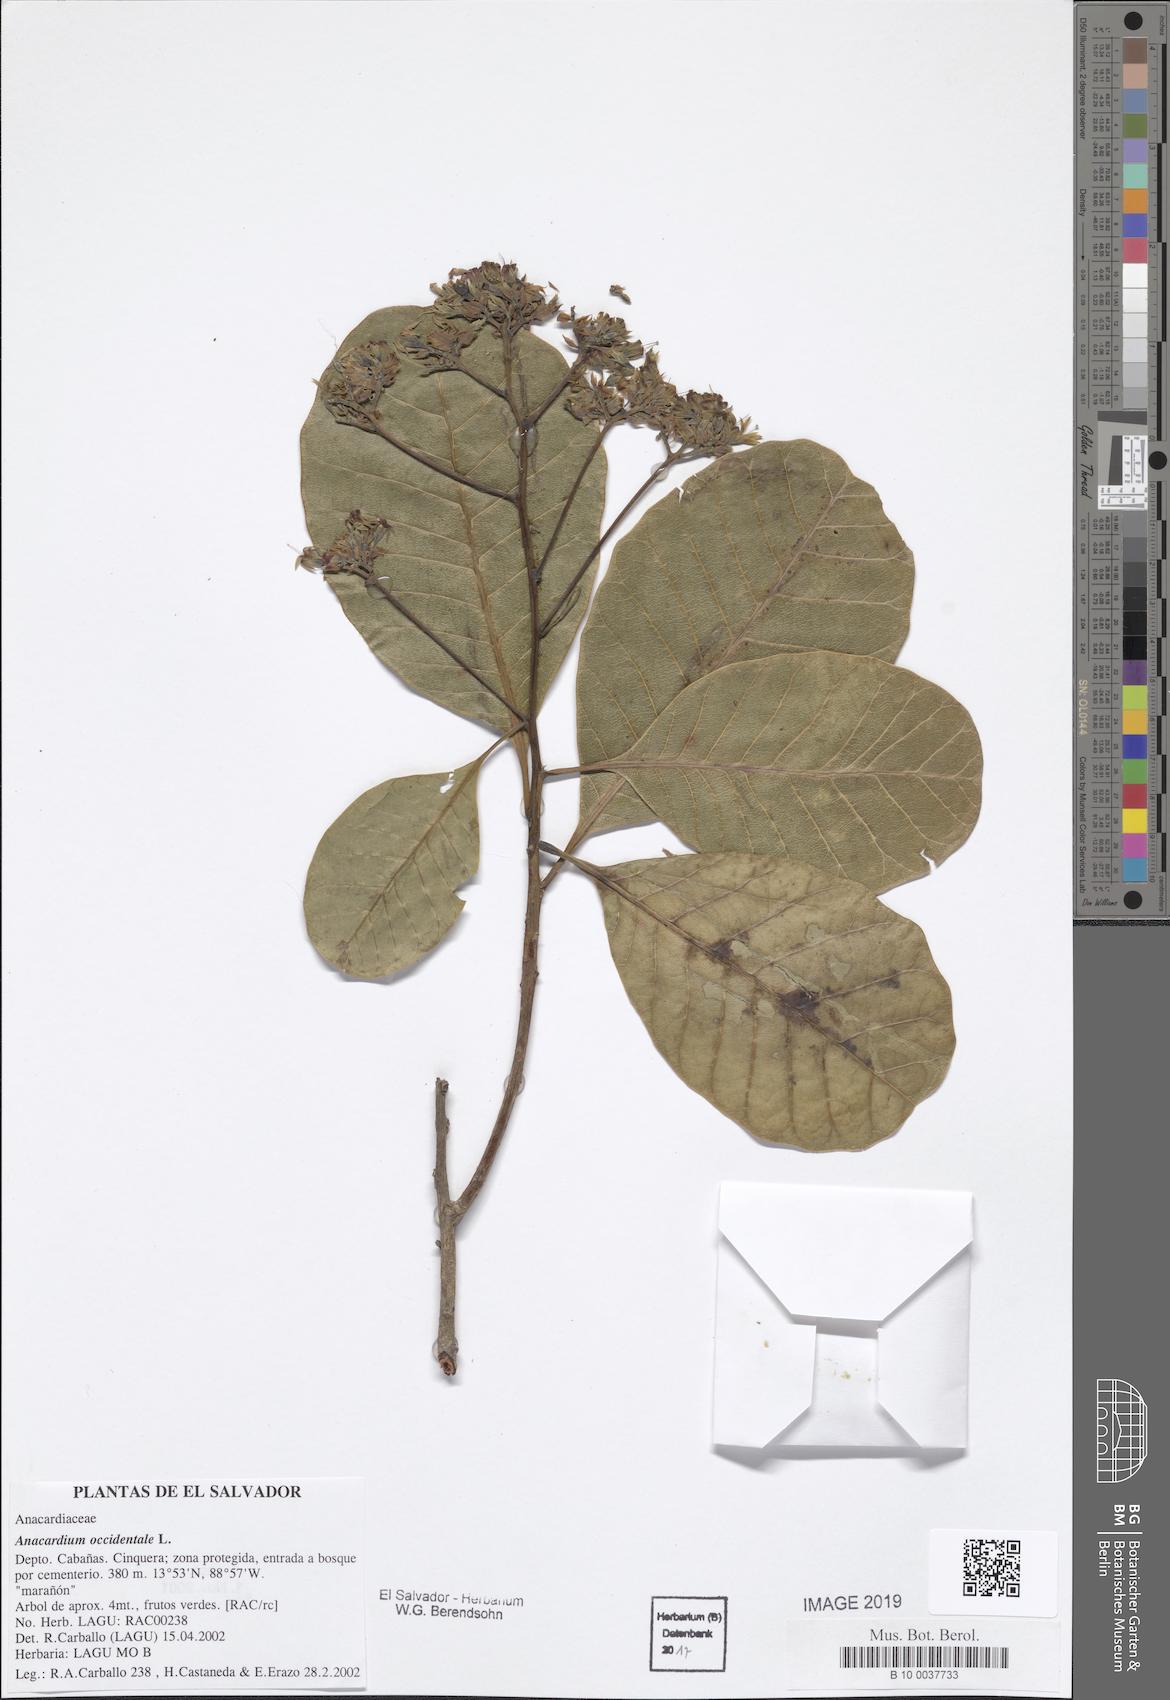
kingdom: Plantae
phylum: Tracheophyta
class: Magnoliopsida
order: Sapindales
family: Anacardiaceae
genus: Anacardium
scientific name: Anacardium occidentale
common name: Cashew
